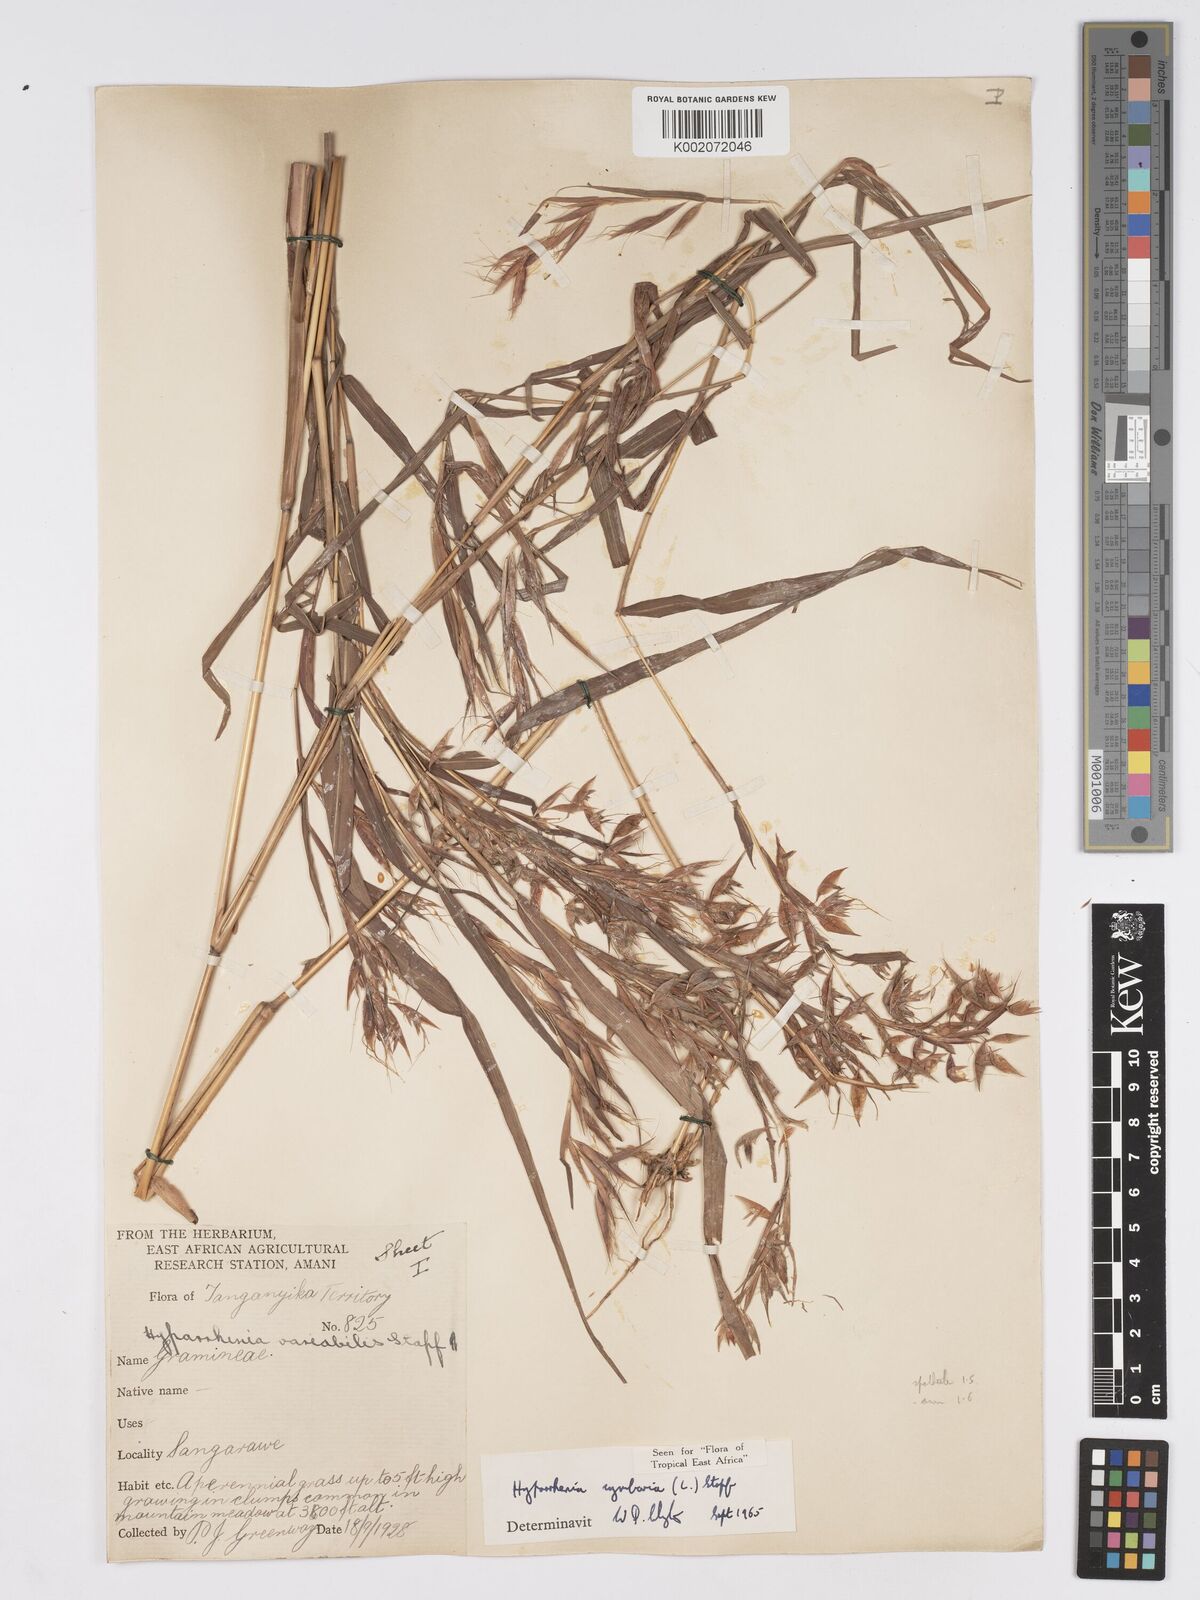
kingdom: Plantae
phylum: Tracheophyta
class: Liliopsida
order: Poales
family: Poaceae
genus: Hyparrhenia
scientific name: Hyparrhenia cymbaria
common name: Boat thatching grass
